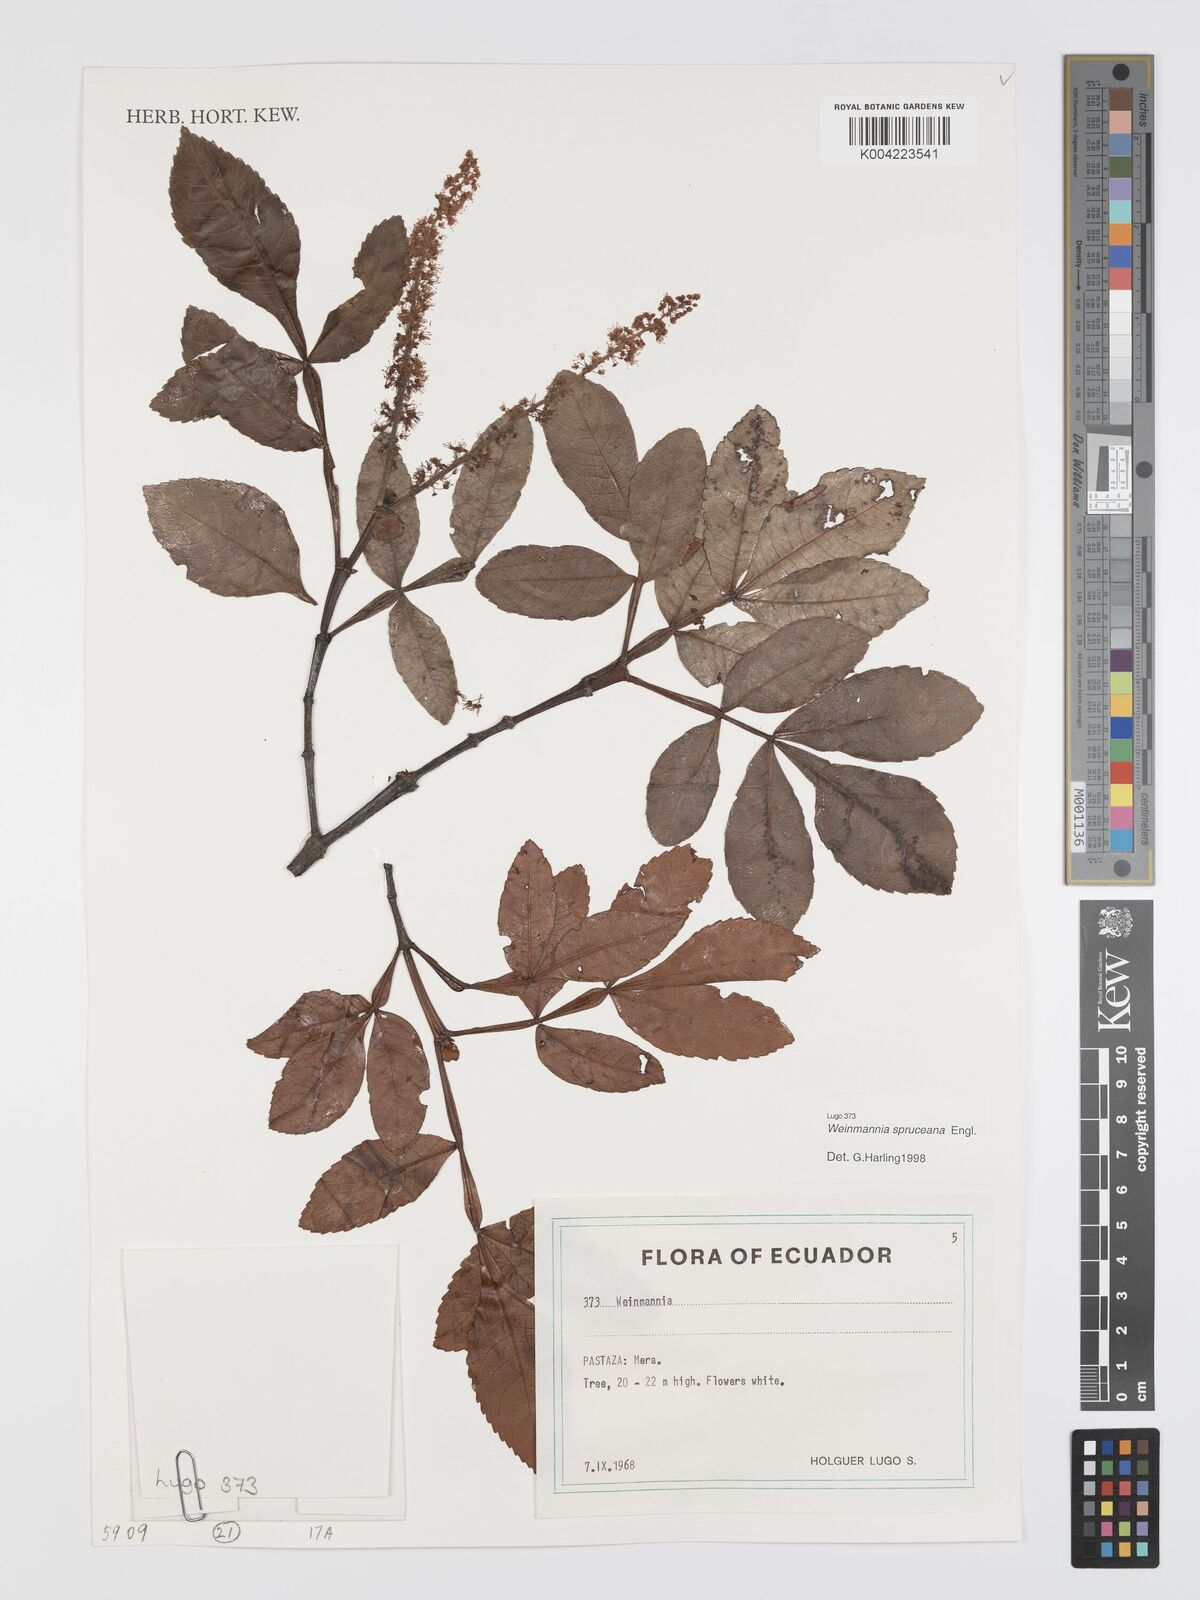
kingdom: Plantae
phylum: Tracheophyta
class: Magnoliopsida
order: Oxalidales
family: Cunoniaceae
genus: Weinmannia
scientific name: Weinmannia spruceana
